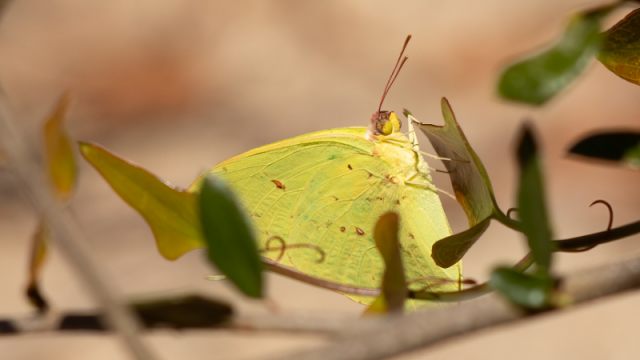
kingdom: Animalia
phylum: Arthropoda
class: Insecta
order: Lepidoptera
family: Pieridae
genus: Phoebis
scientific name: Phoebis sennae
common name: Cloudless Sulphur
